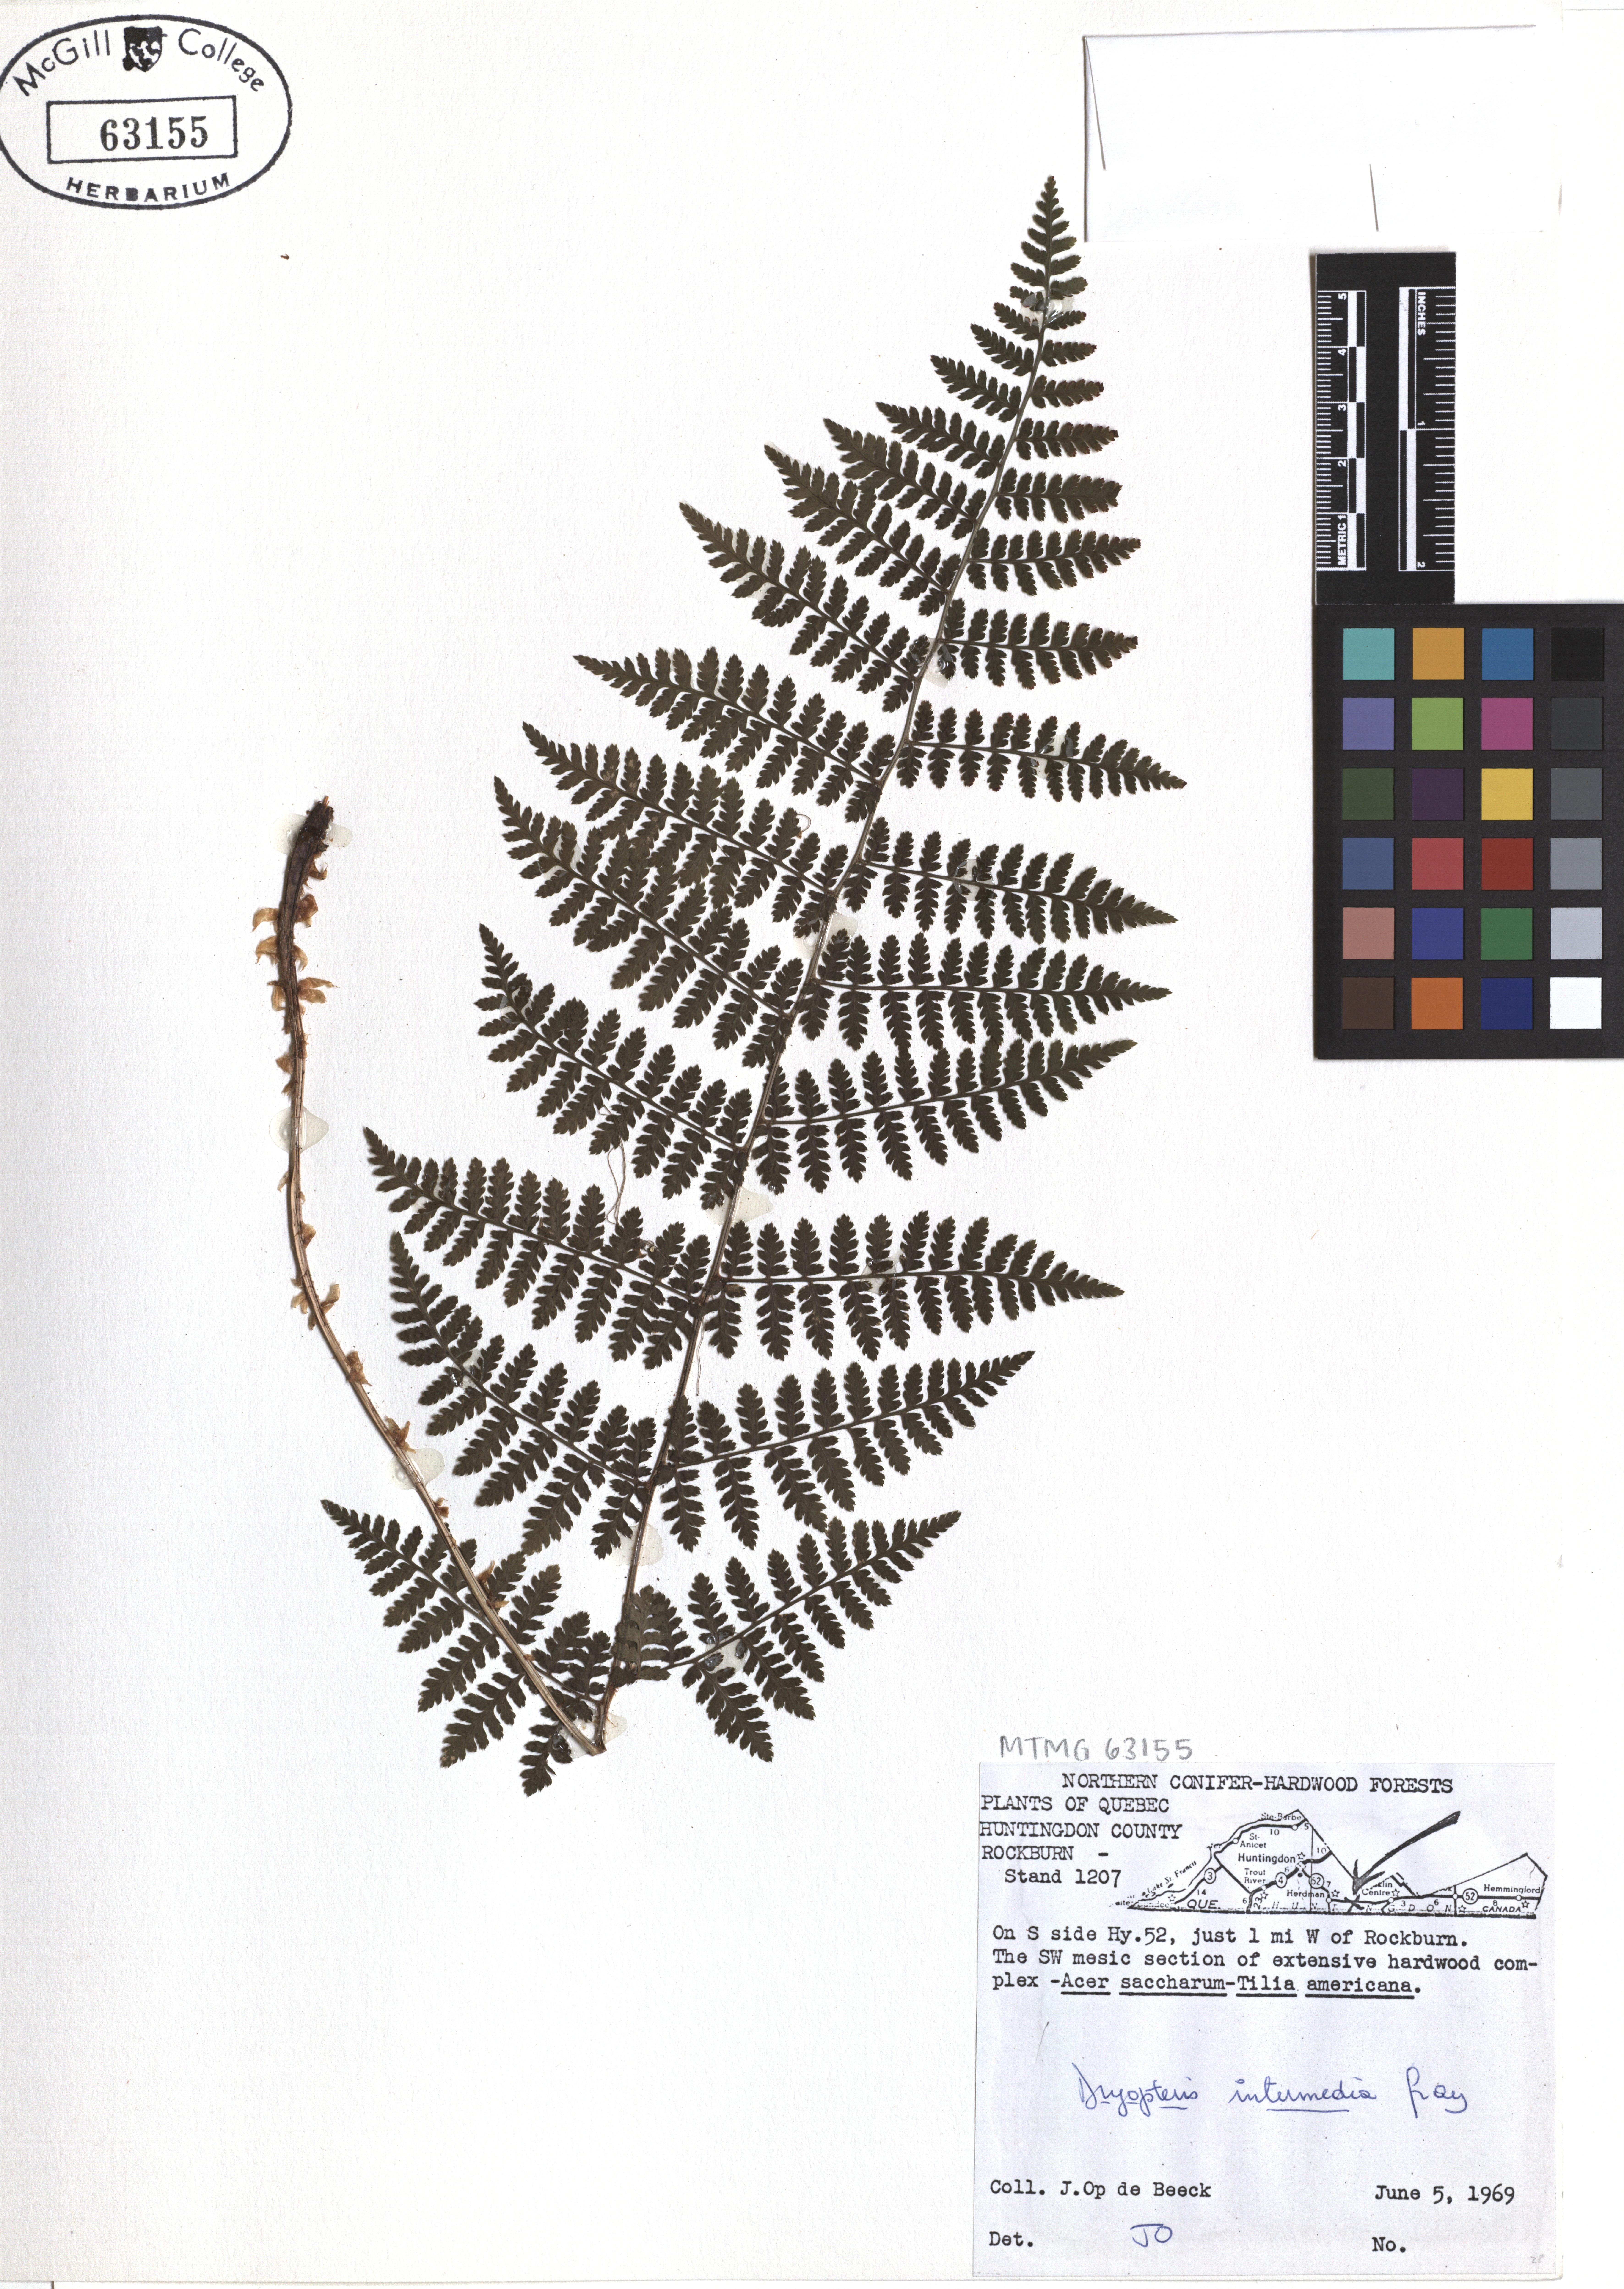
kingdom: Plantae
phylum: Tracheophyta
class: Polypodiopsida
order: Polypodiales
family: Dryopteridaceae
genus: Dryopteris
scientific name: Dryopteris intermedia
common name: Evergreen wood fern
